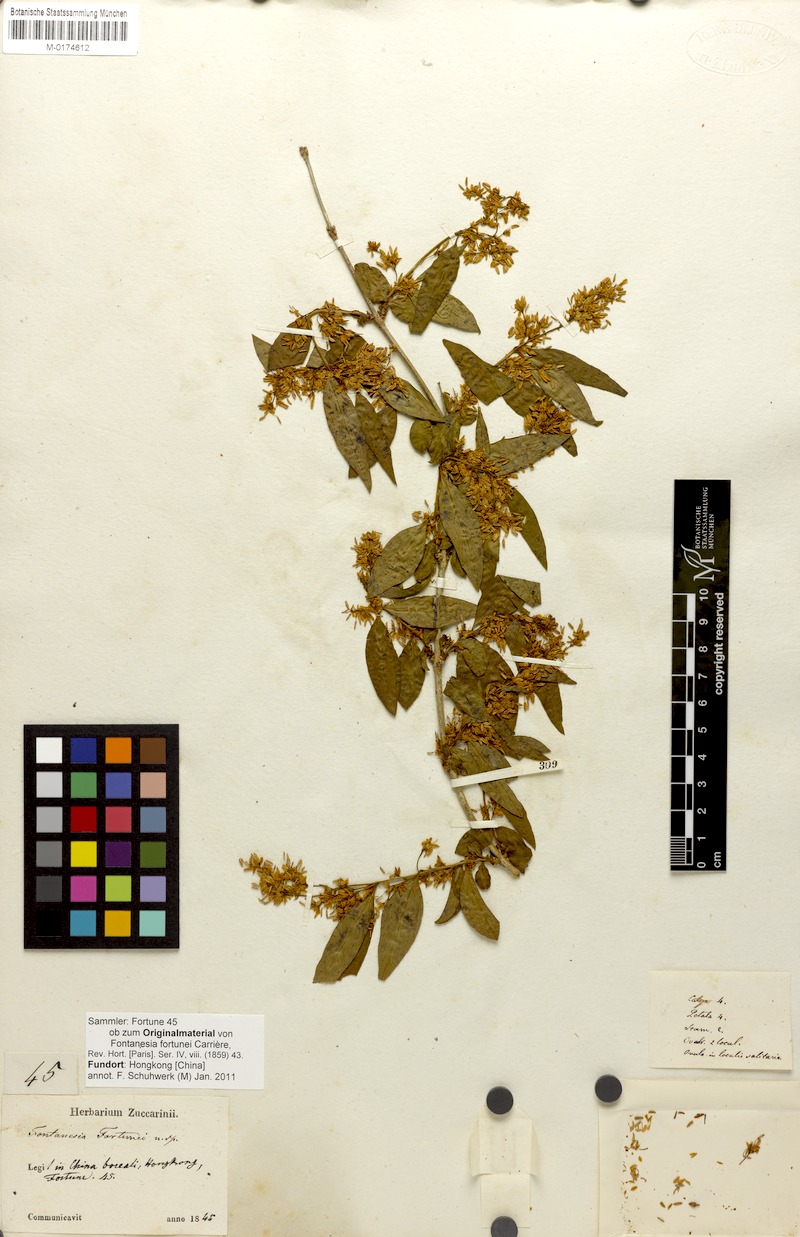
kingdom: Plantae
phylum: Tracheophyta
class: Magnoliopsida
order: Lamiales
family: Oleaceae
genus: Fontanesia
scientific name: Fontanesia fortunei
